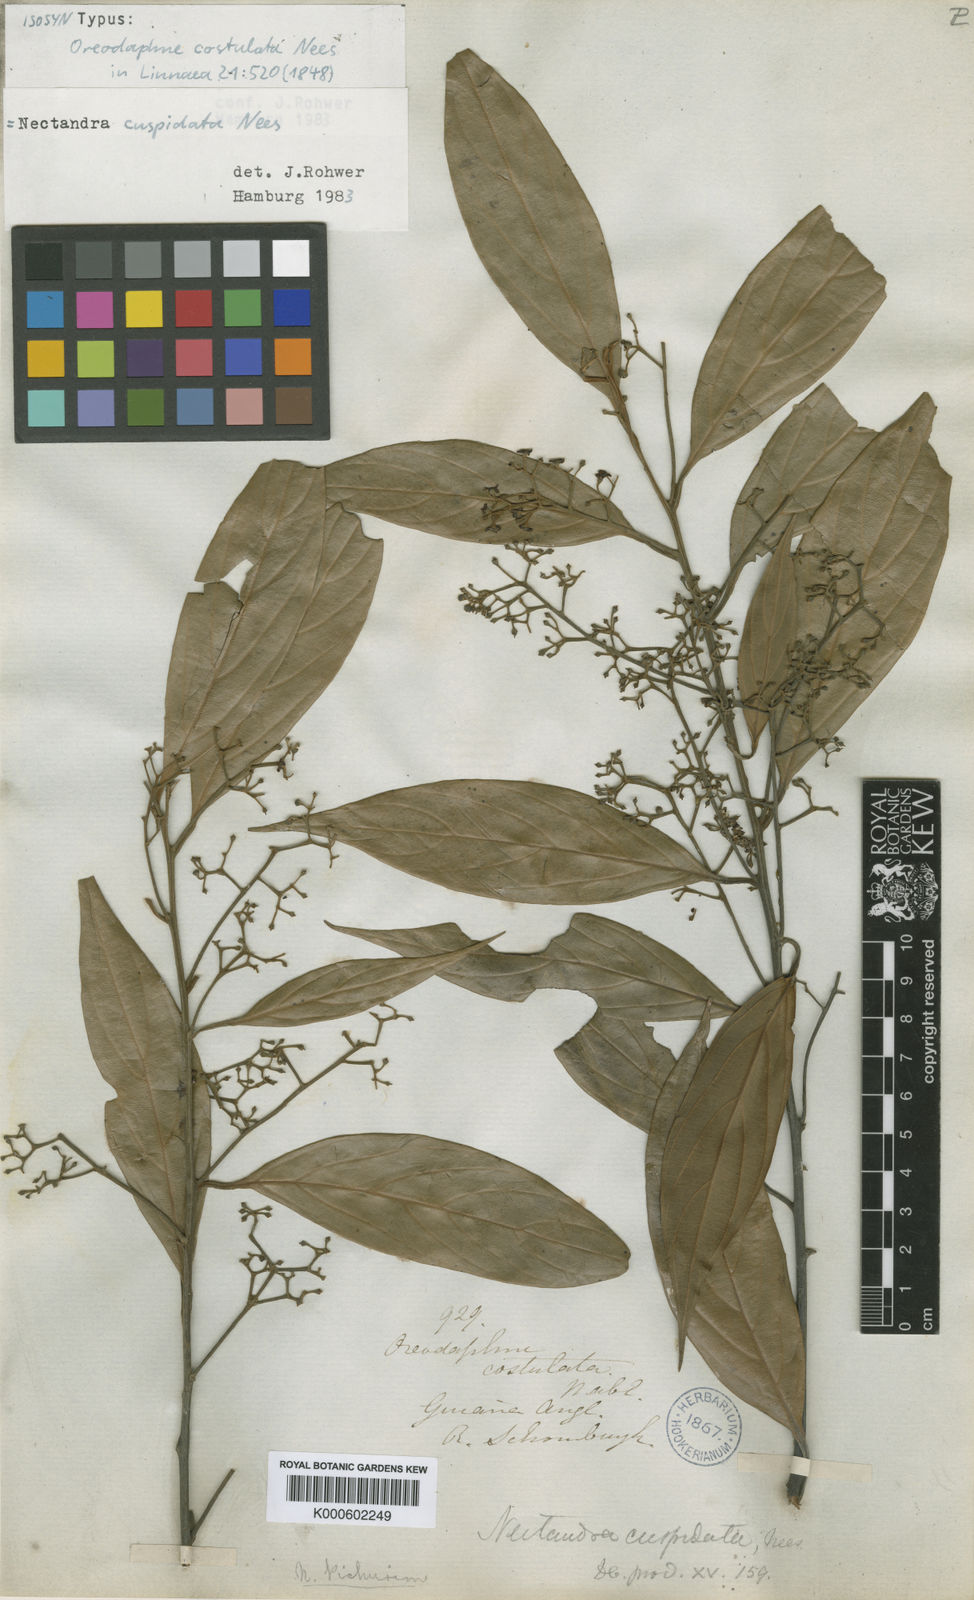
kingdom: Plantae
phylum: Tracheophyta
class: Magnoliopsida
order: Laurales
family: Lauraceae
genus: Ocotea
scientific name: Ocotea aciphylla
